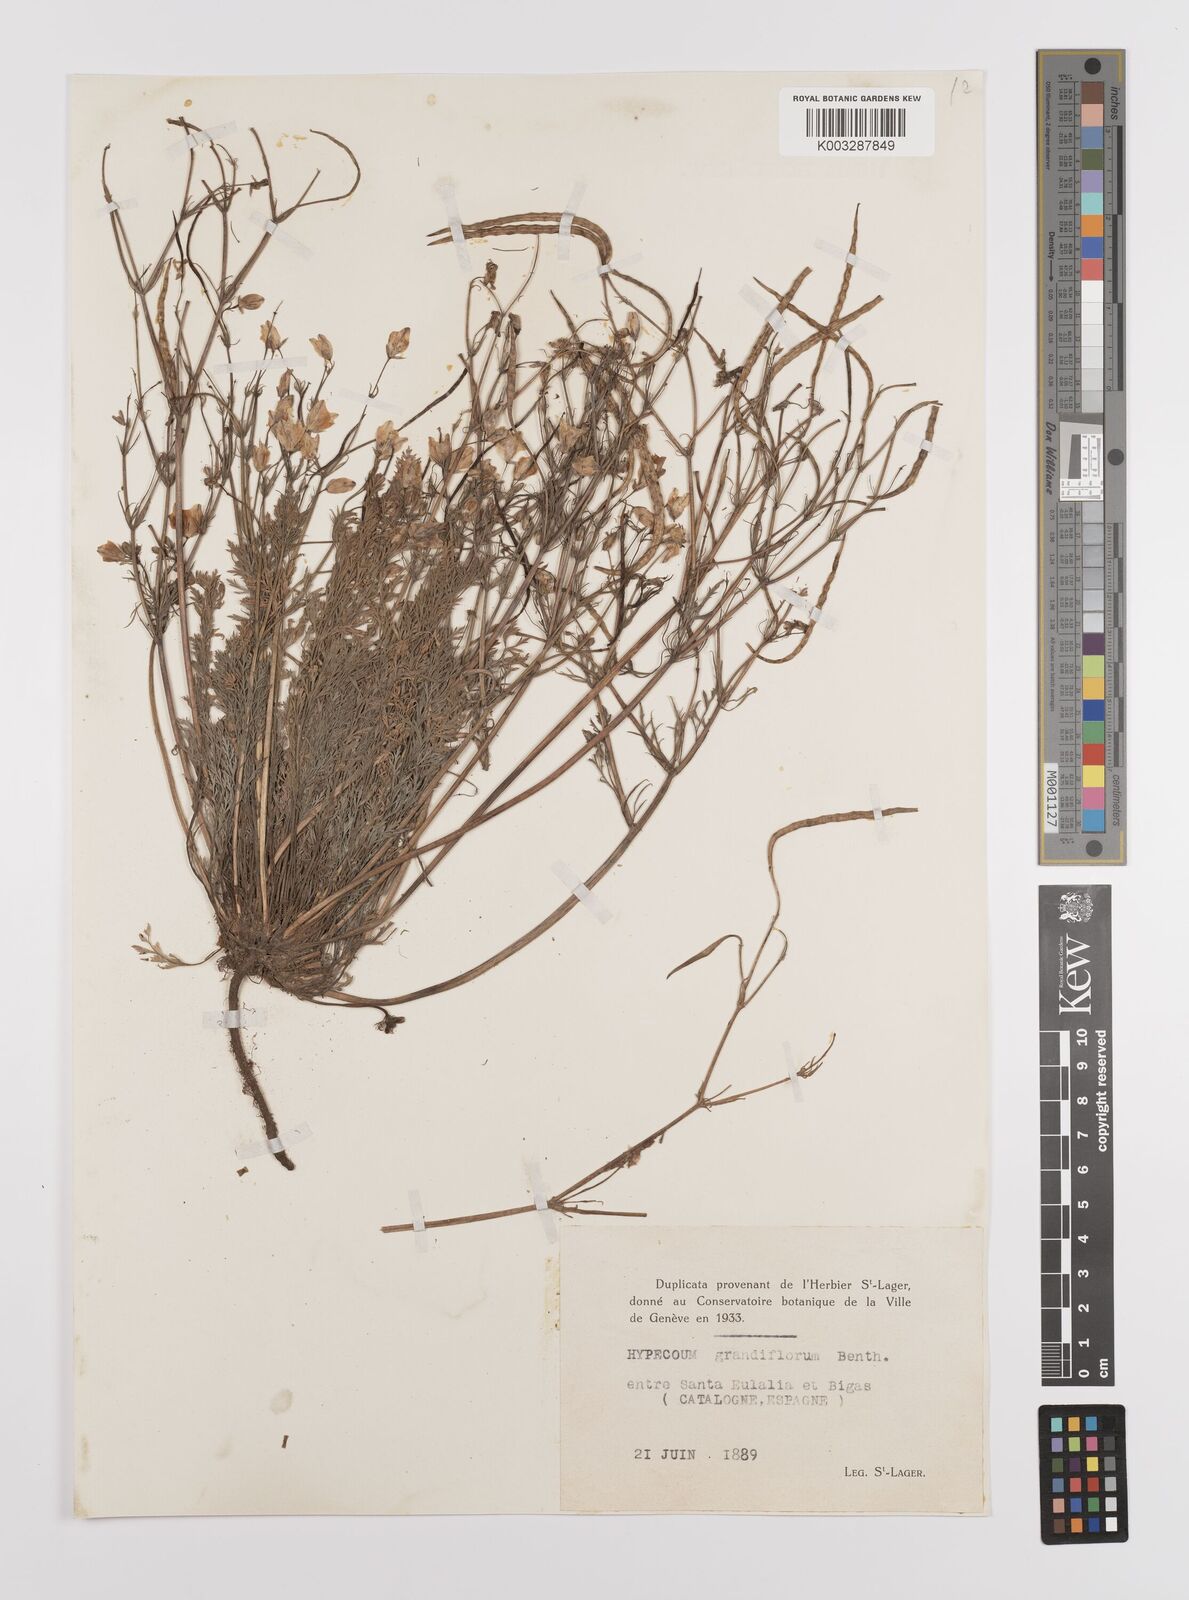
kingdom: Plantae
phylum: Tracheophyta
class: Magnoliopsida
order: Ranunculales
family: Papaveraceae
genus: Hypecoum
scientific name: Hypecoum imberbe
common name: Sicklefruit hypecoum
